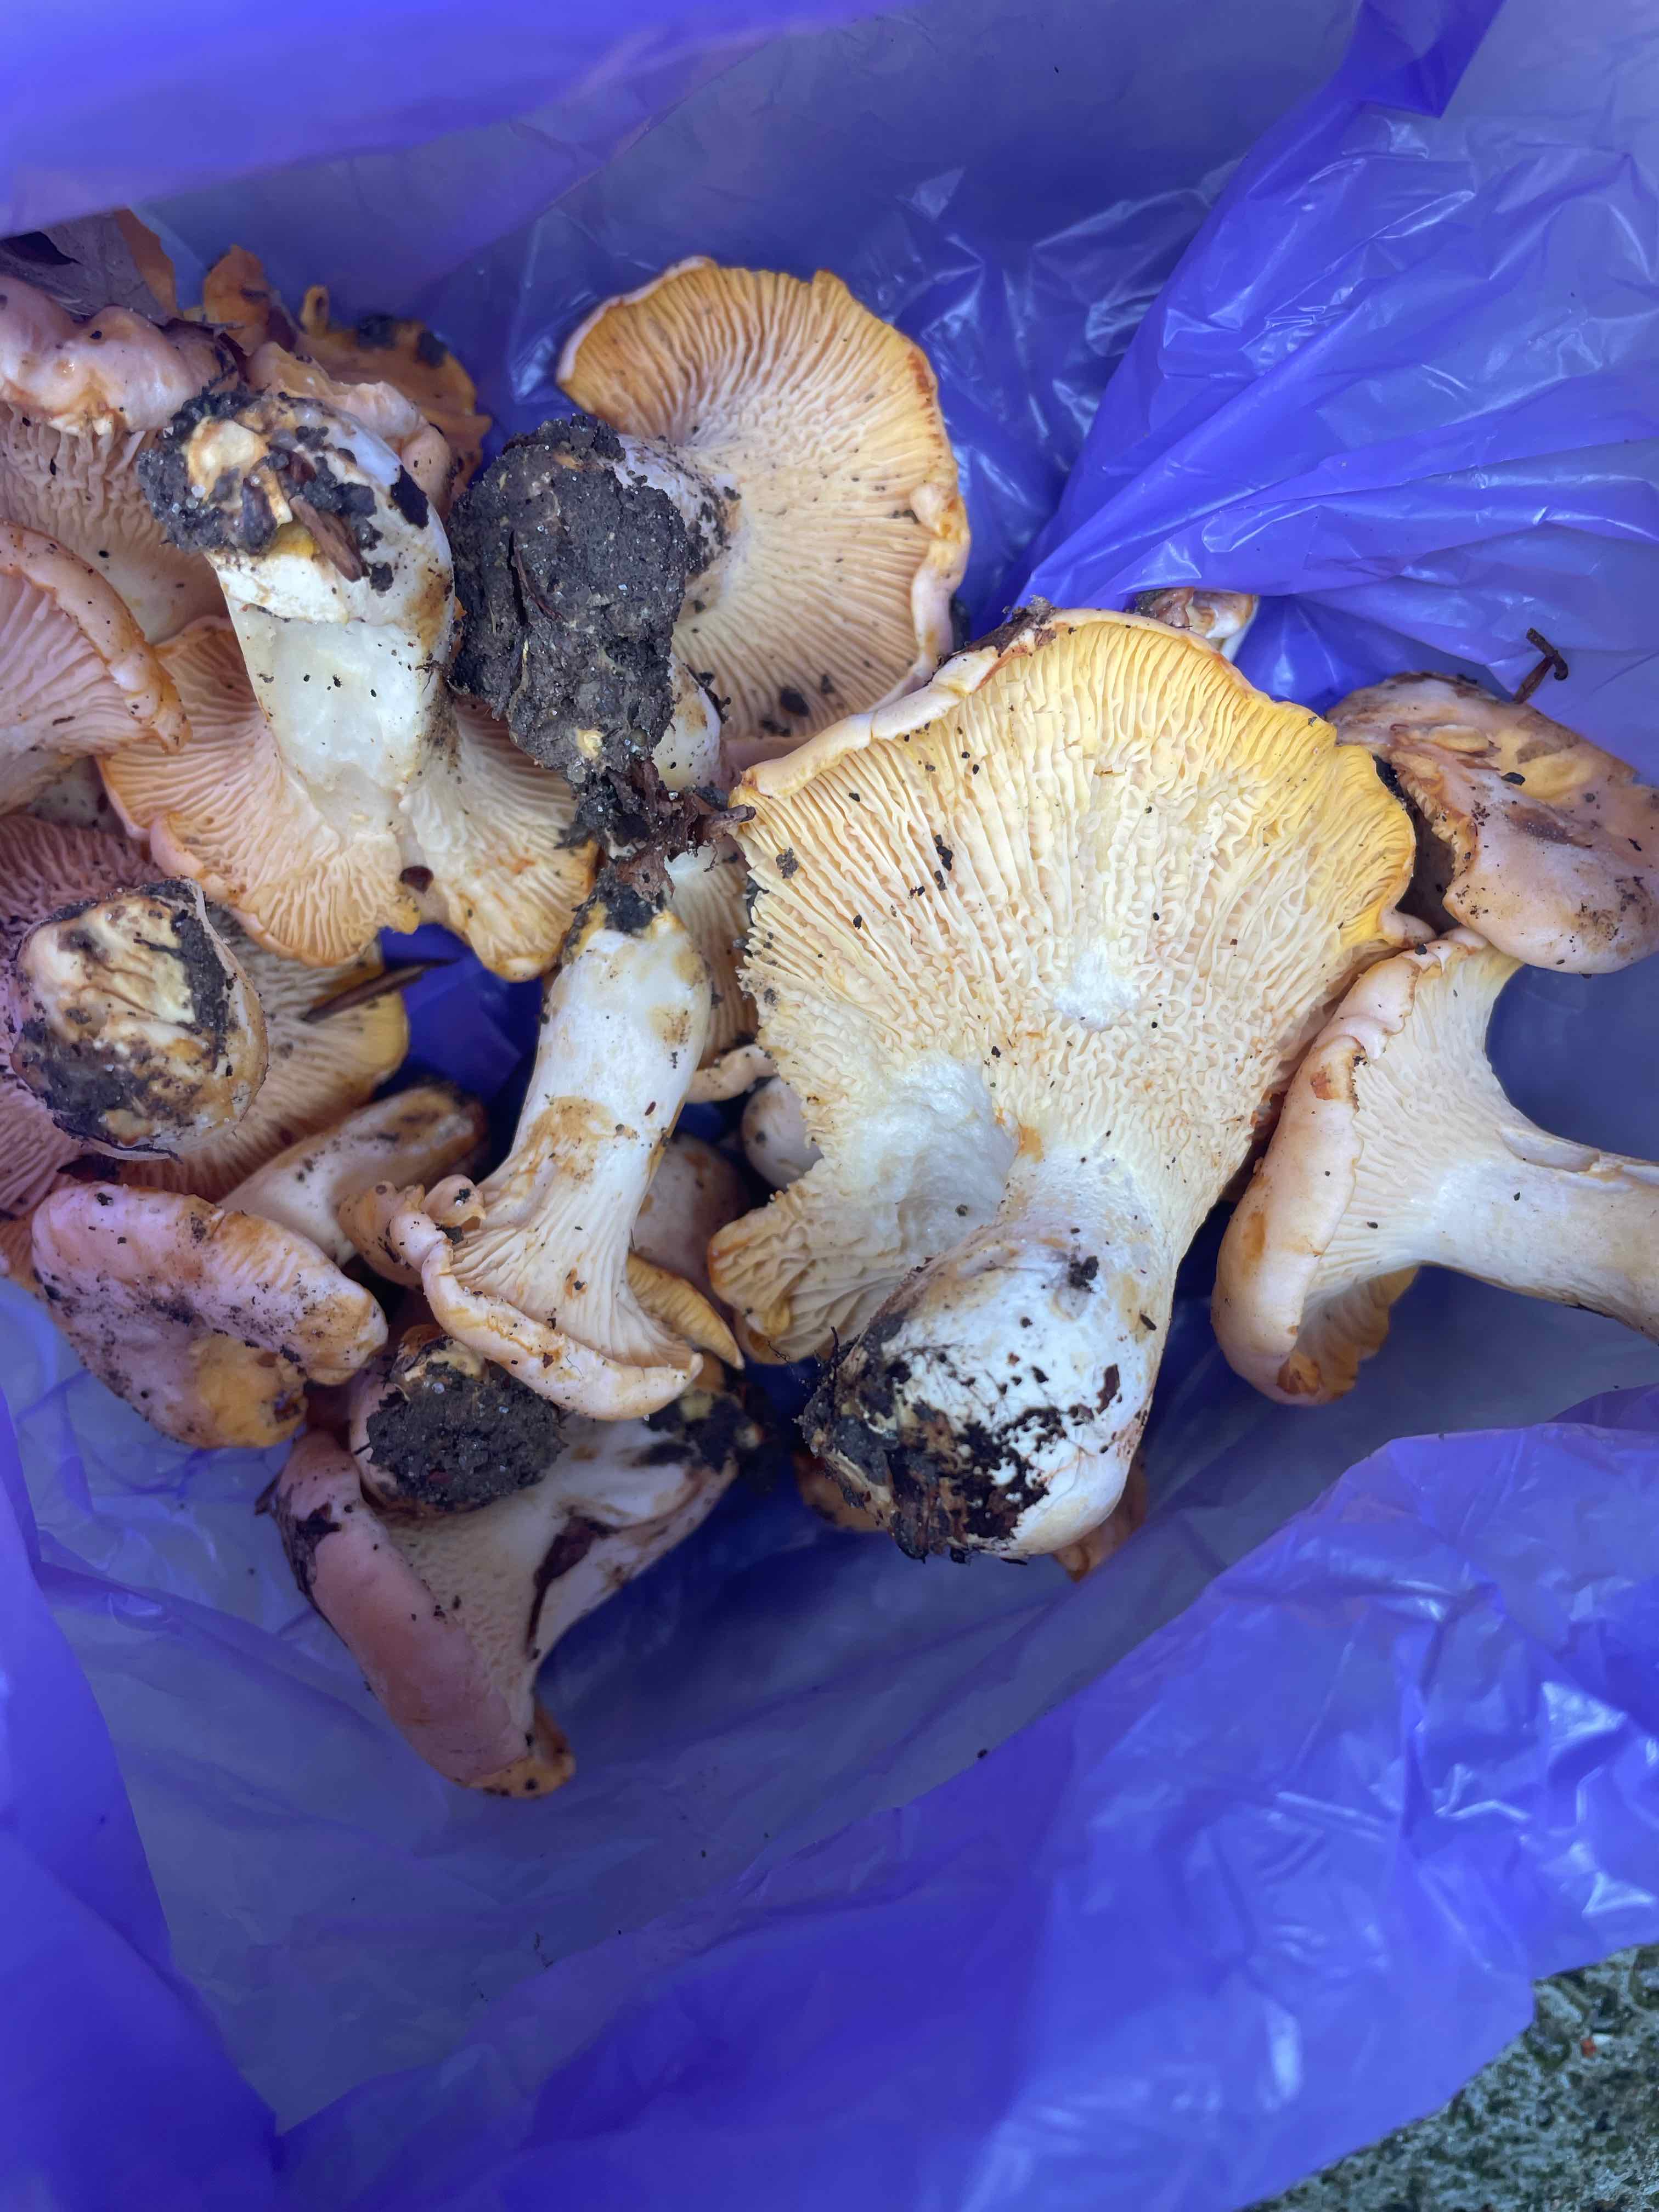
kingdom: Fungi
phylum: Basidiomycota
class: Agaricomycetes
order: Cantharellales
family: Hydnaceae
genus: Cantharellus
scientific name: Cantharellus pallens
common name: bleg kantarel
